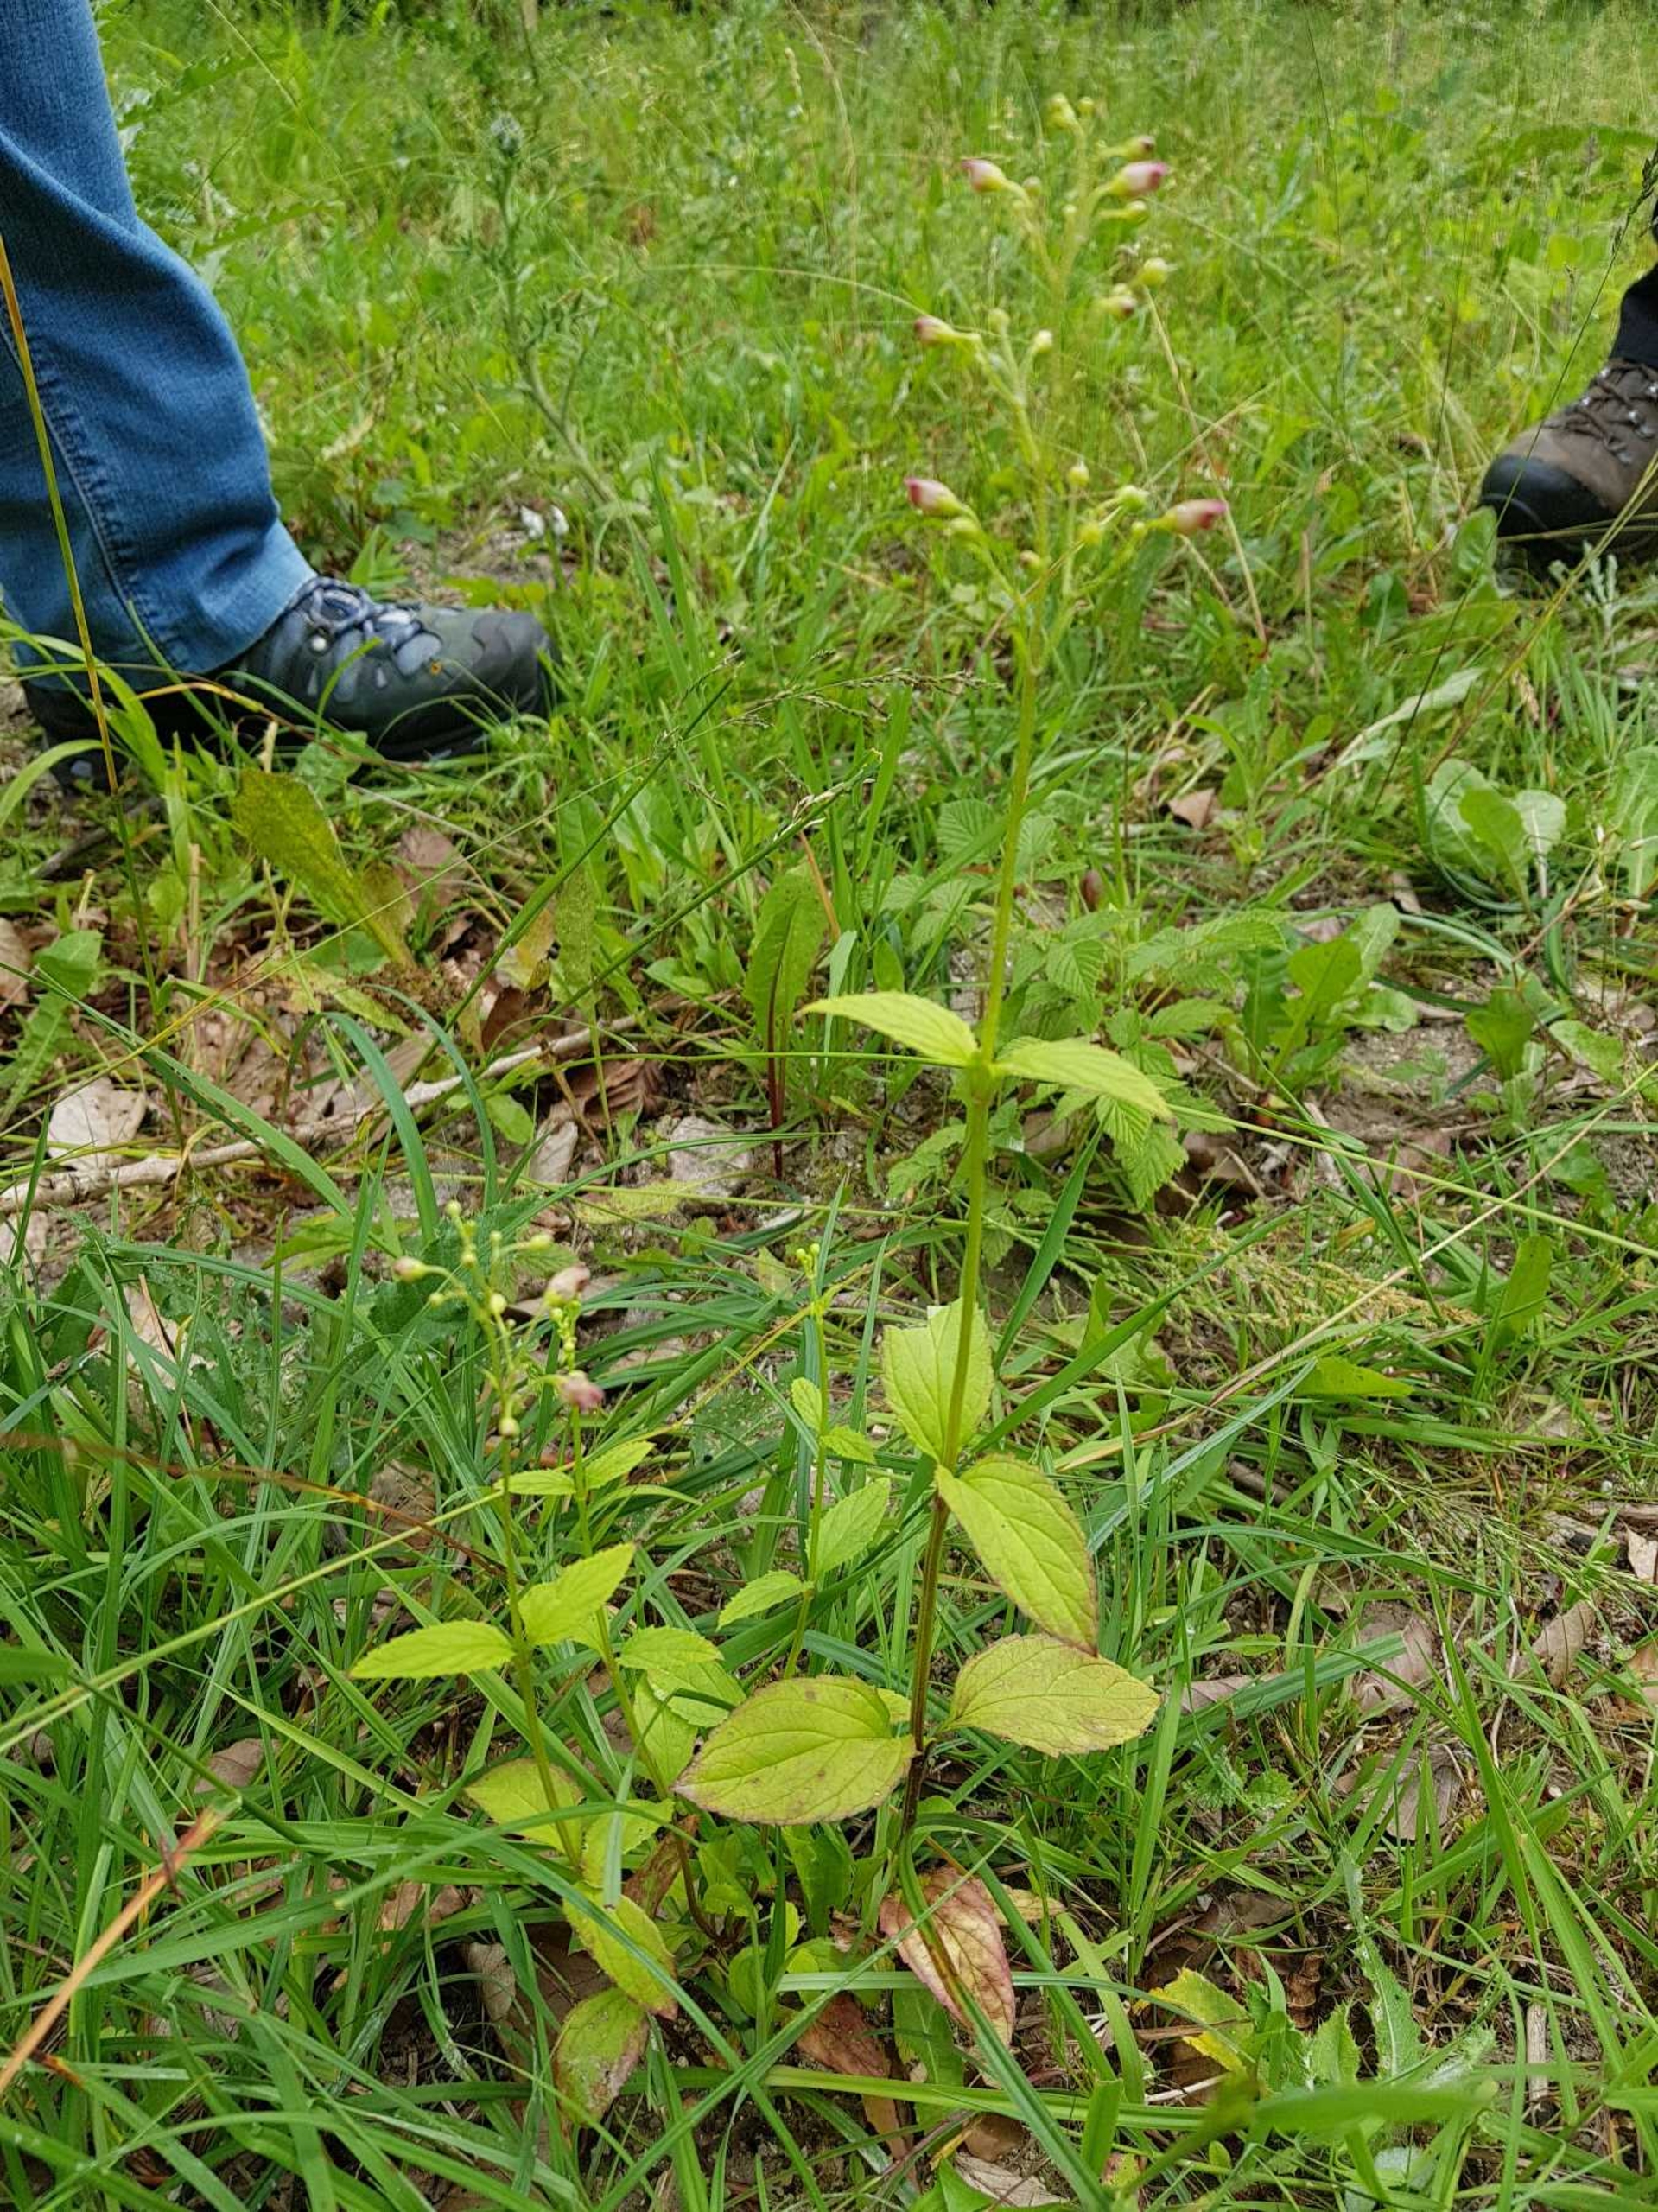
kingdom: Plantae
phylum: Tracheophyta
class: Magnoliopsida
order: Lamiales
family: Scrophulariaceae
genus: Scrophularia
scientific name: Scrophularia nodosa
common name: Knoldet brunrod
